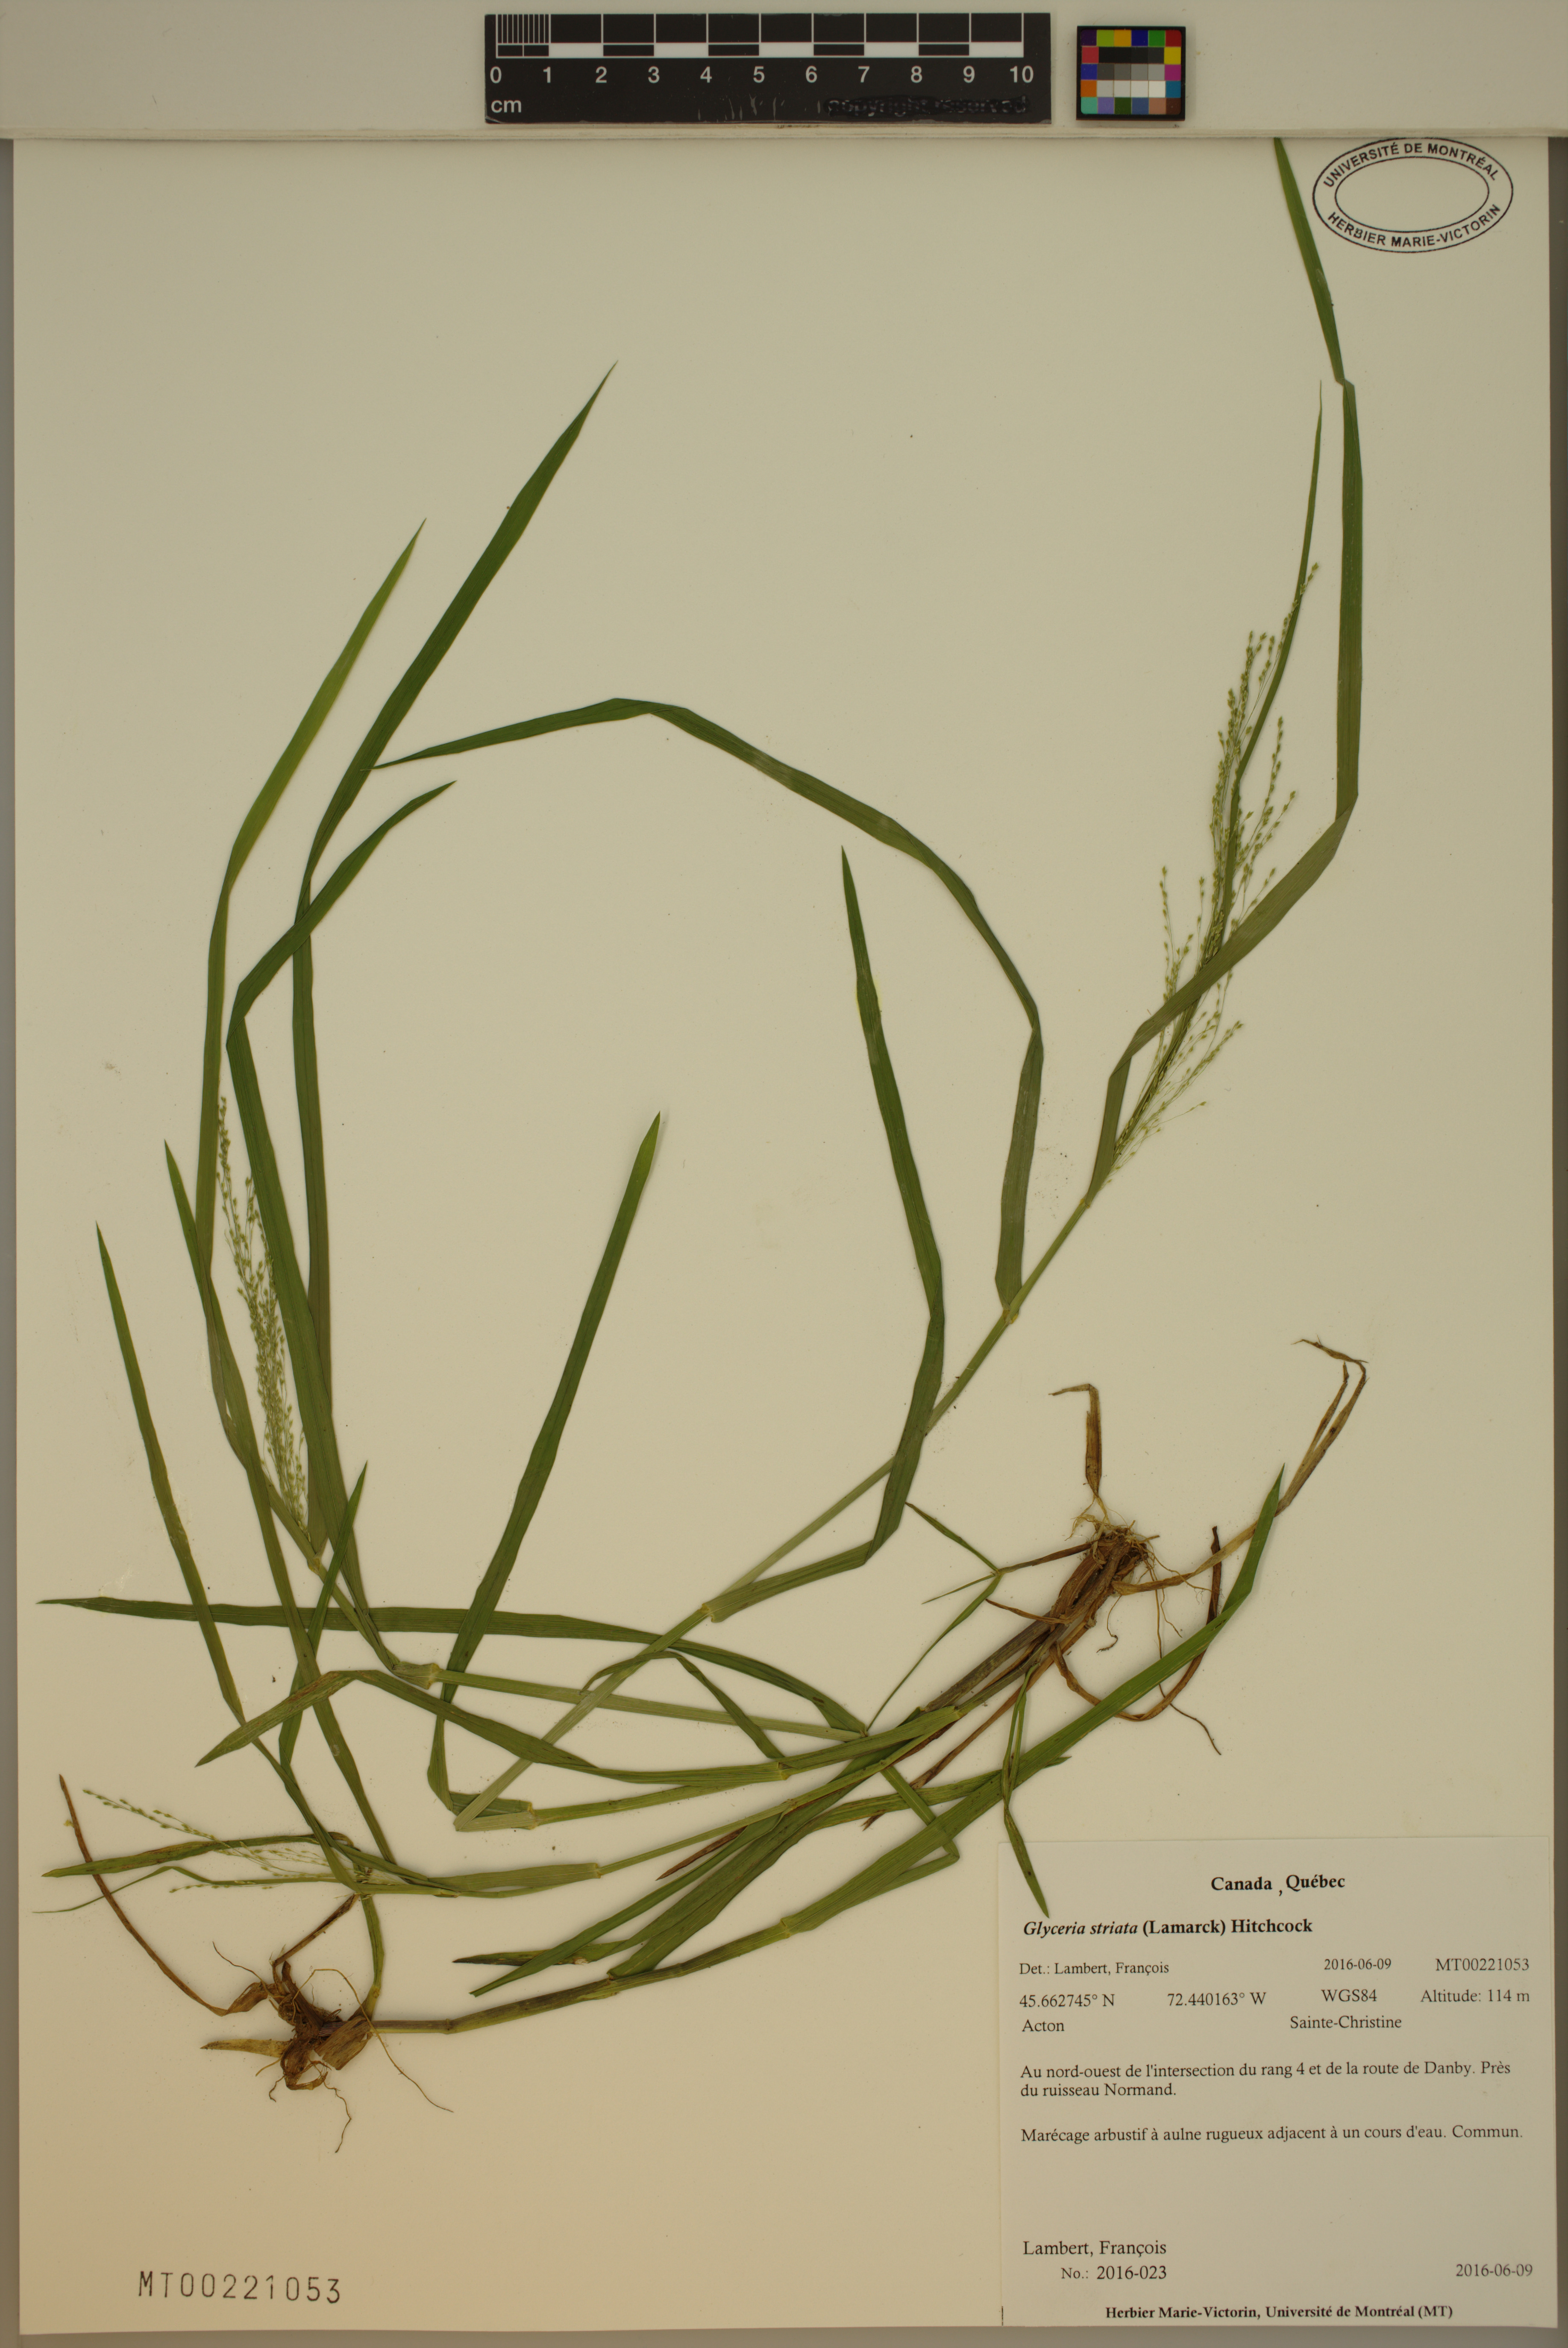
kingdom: Plantae
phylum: Tracheophyta
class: Liliopsida
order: Poales
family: Poaceae
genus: Glyceria
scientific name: Glyceria striata
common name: Fowl manna grass
